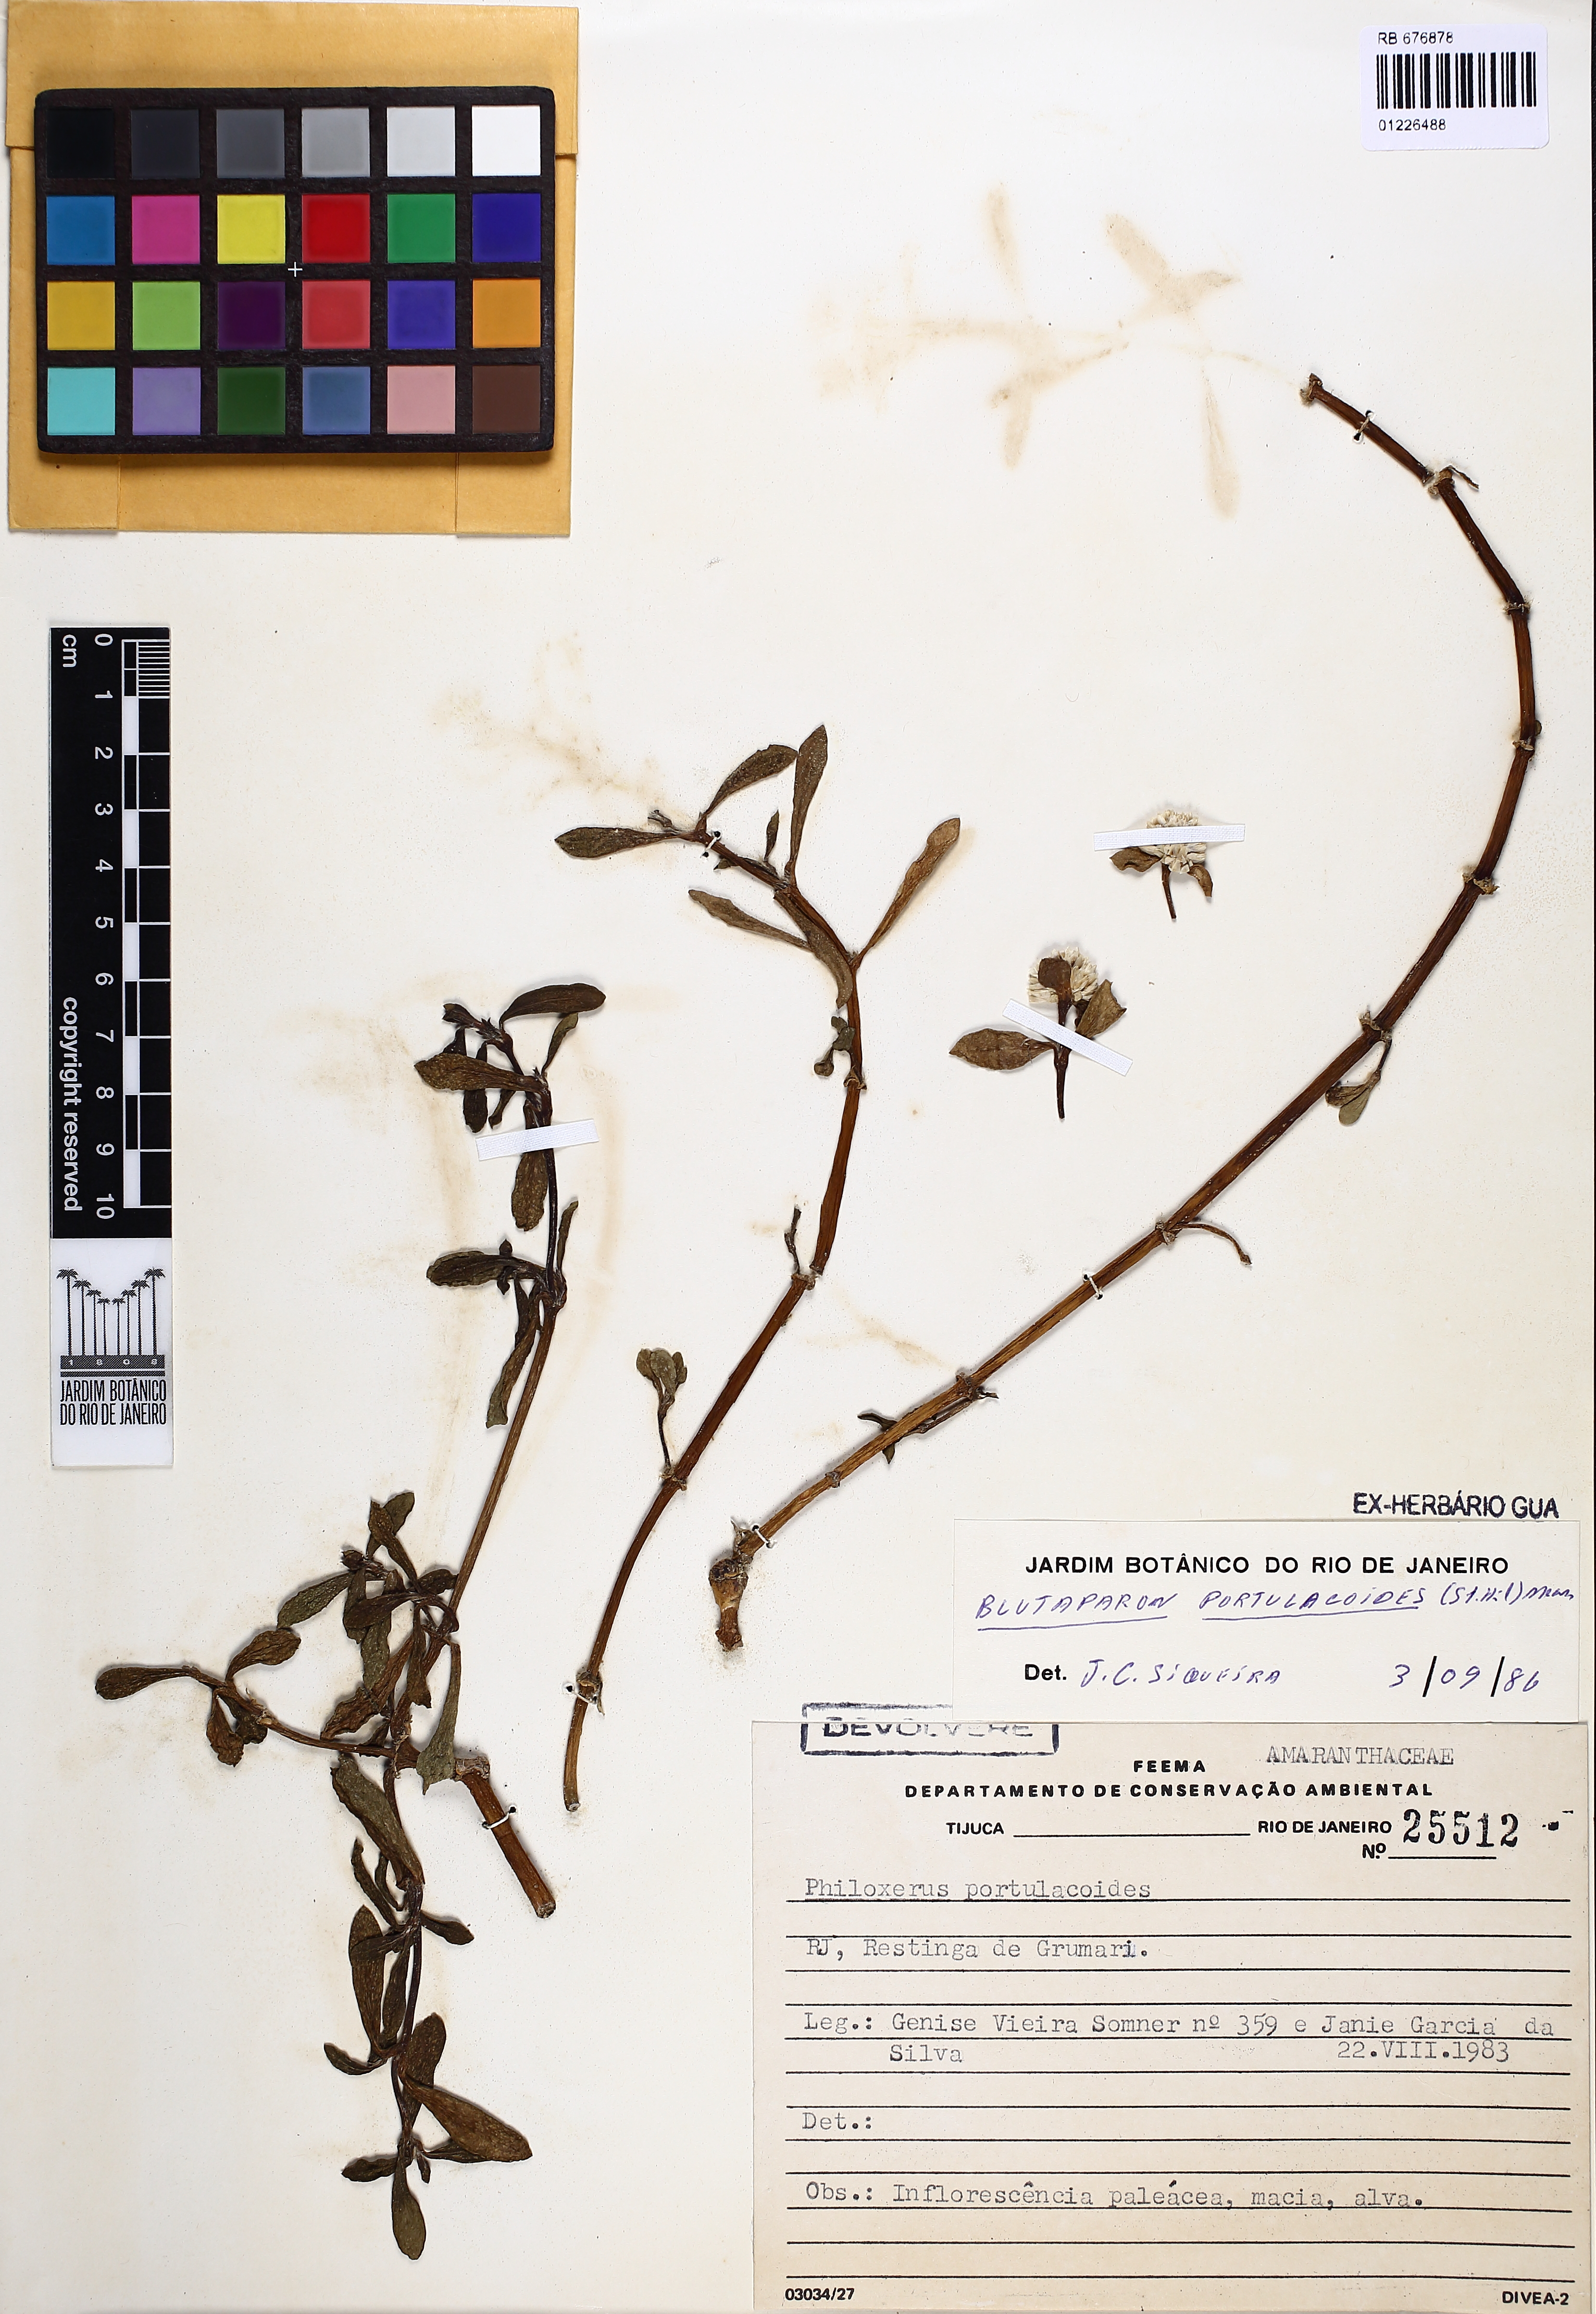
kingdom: Plantae
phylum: Tracheophyta
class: Magnoliopsida
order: Caryophyllales
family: Amaranthaceae
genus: Gomphrena
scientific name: Gomphrena portulacoides
